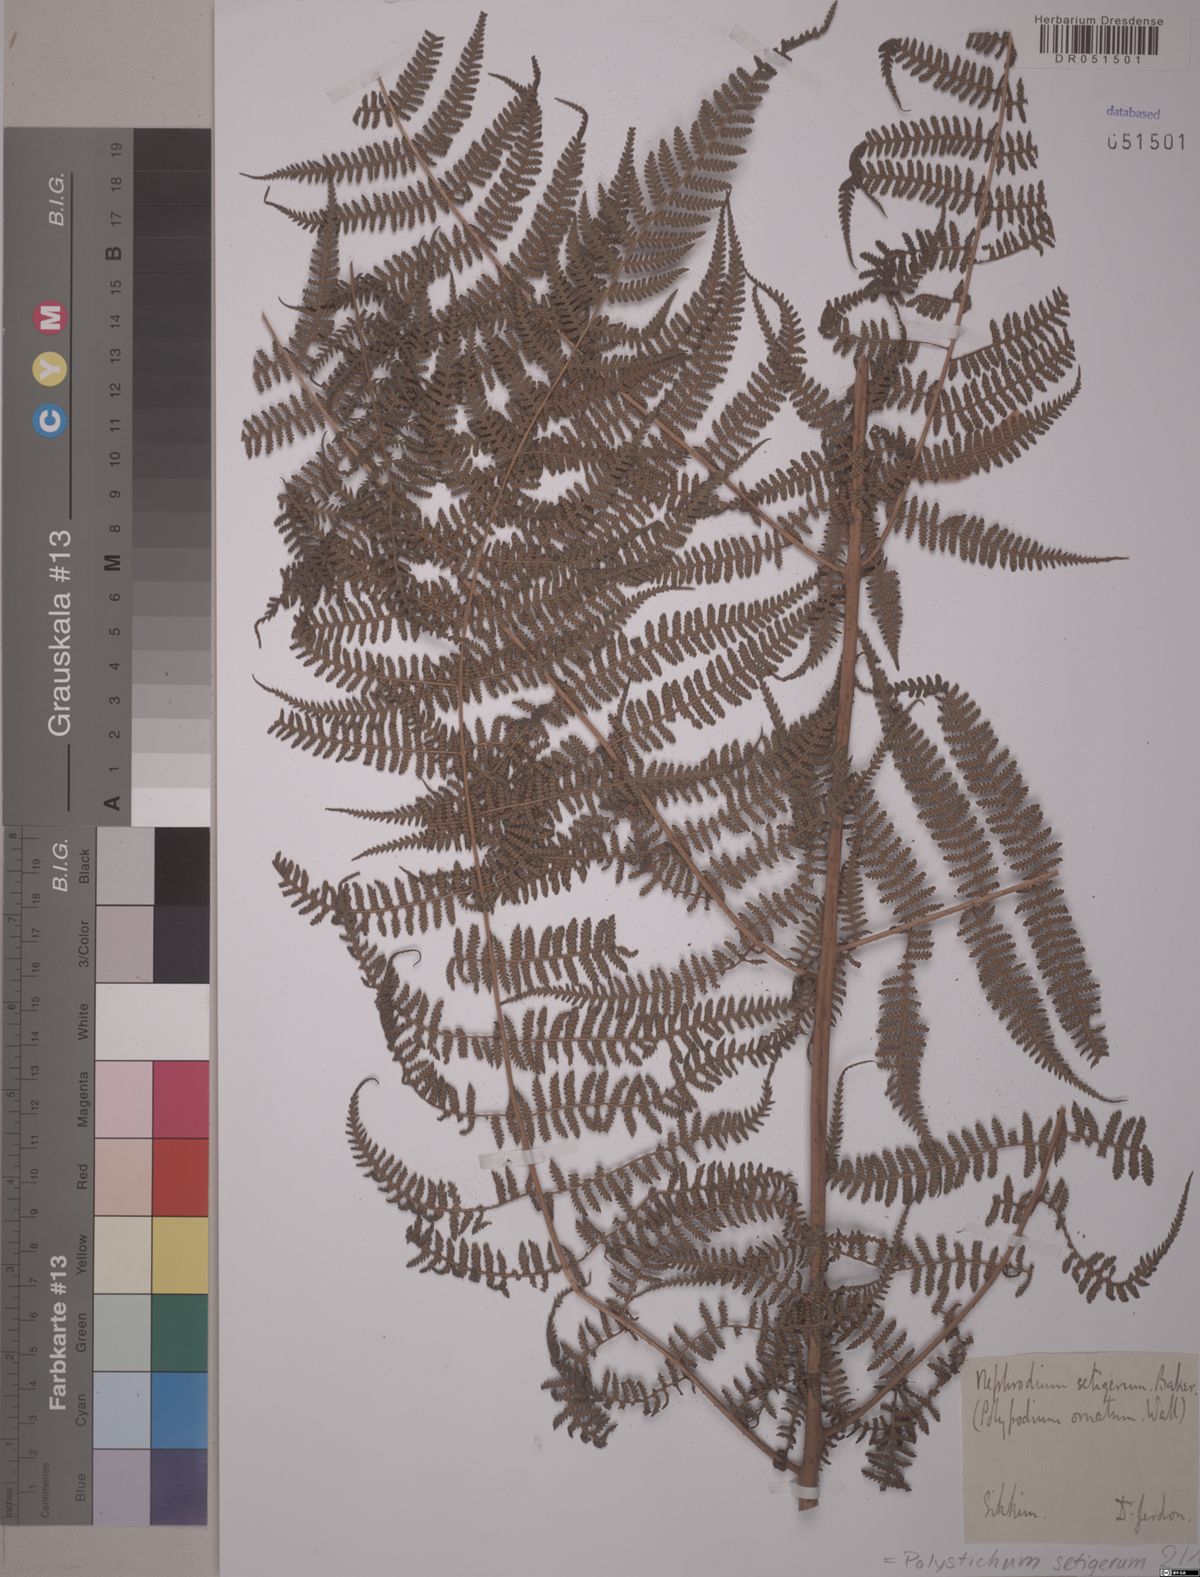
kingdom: Plantae
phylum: Tracheophyta
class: Polypodiopsida
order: Polypodiales
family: Dryopteridaceae
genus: Polystichum
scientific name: Polystichum setigerum
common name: Alaska holly fern
